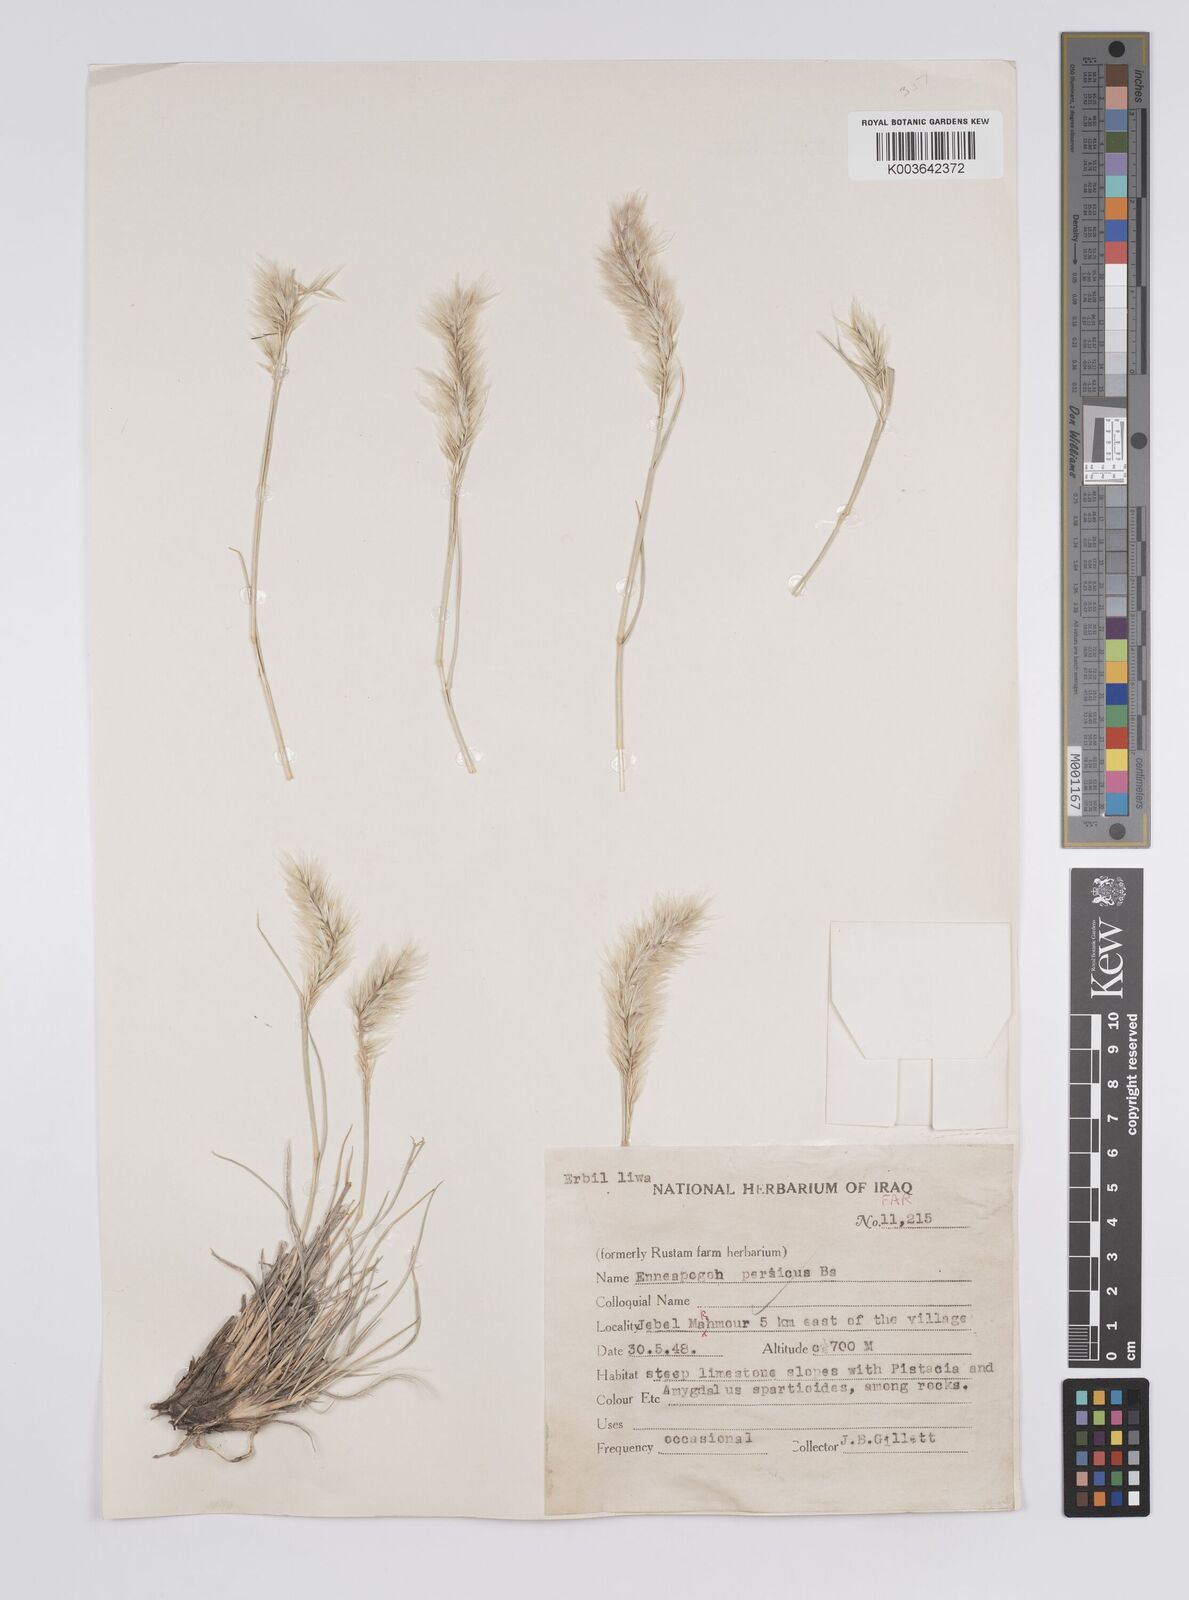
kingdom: Plantae
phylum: Tracheophyta
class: Liliopsida
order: Poales
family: Poaceae
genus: Enneapogon
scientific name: Enneapogon persicus
